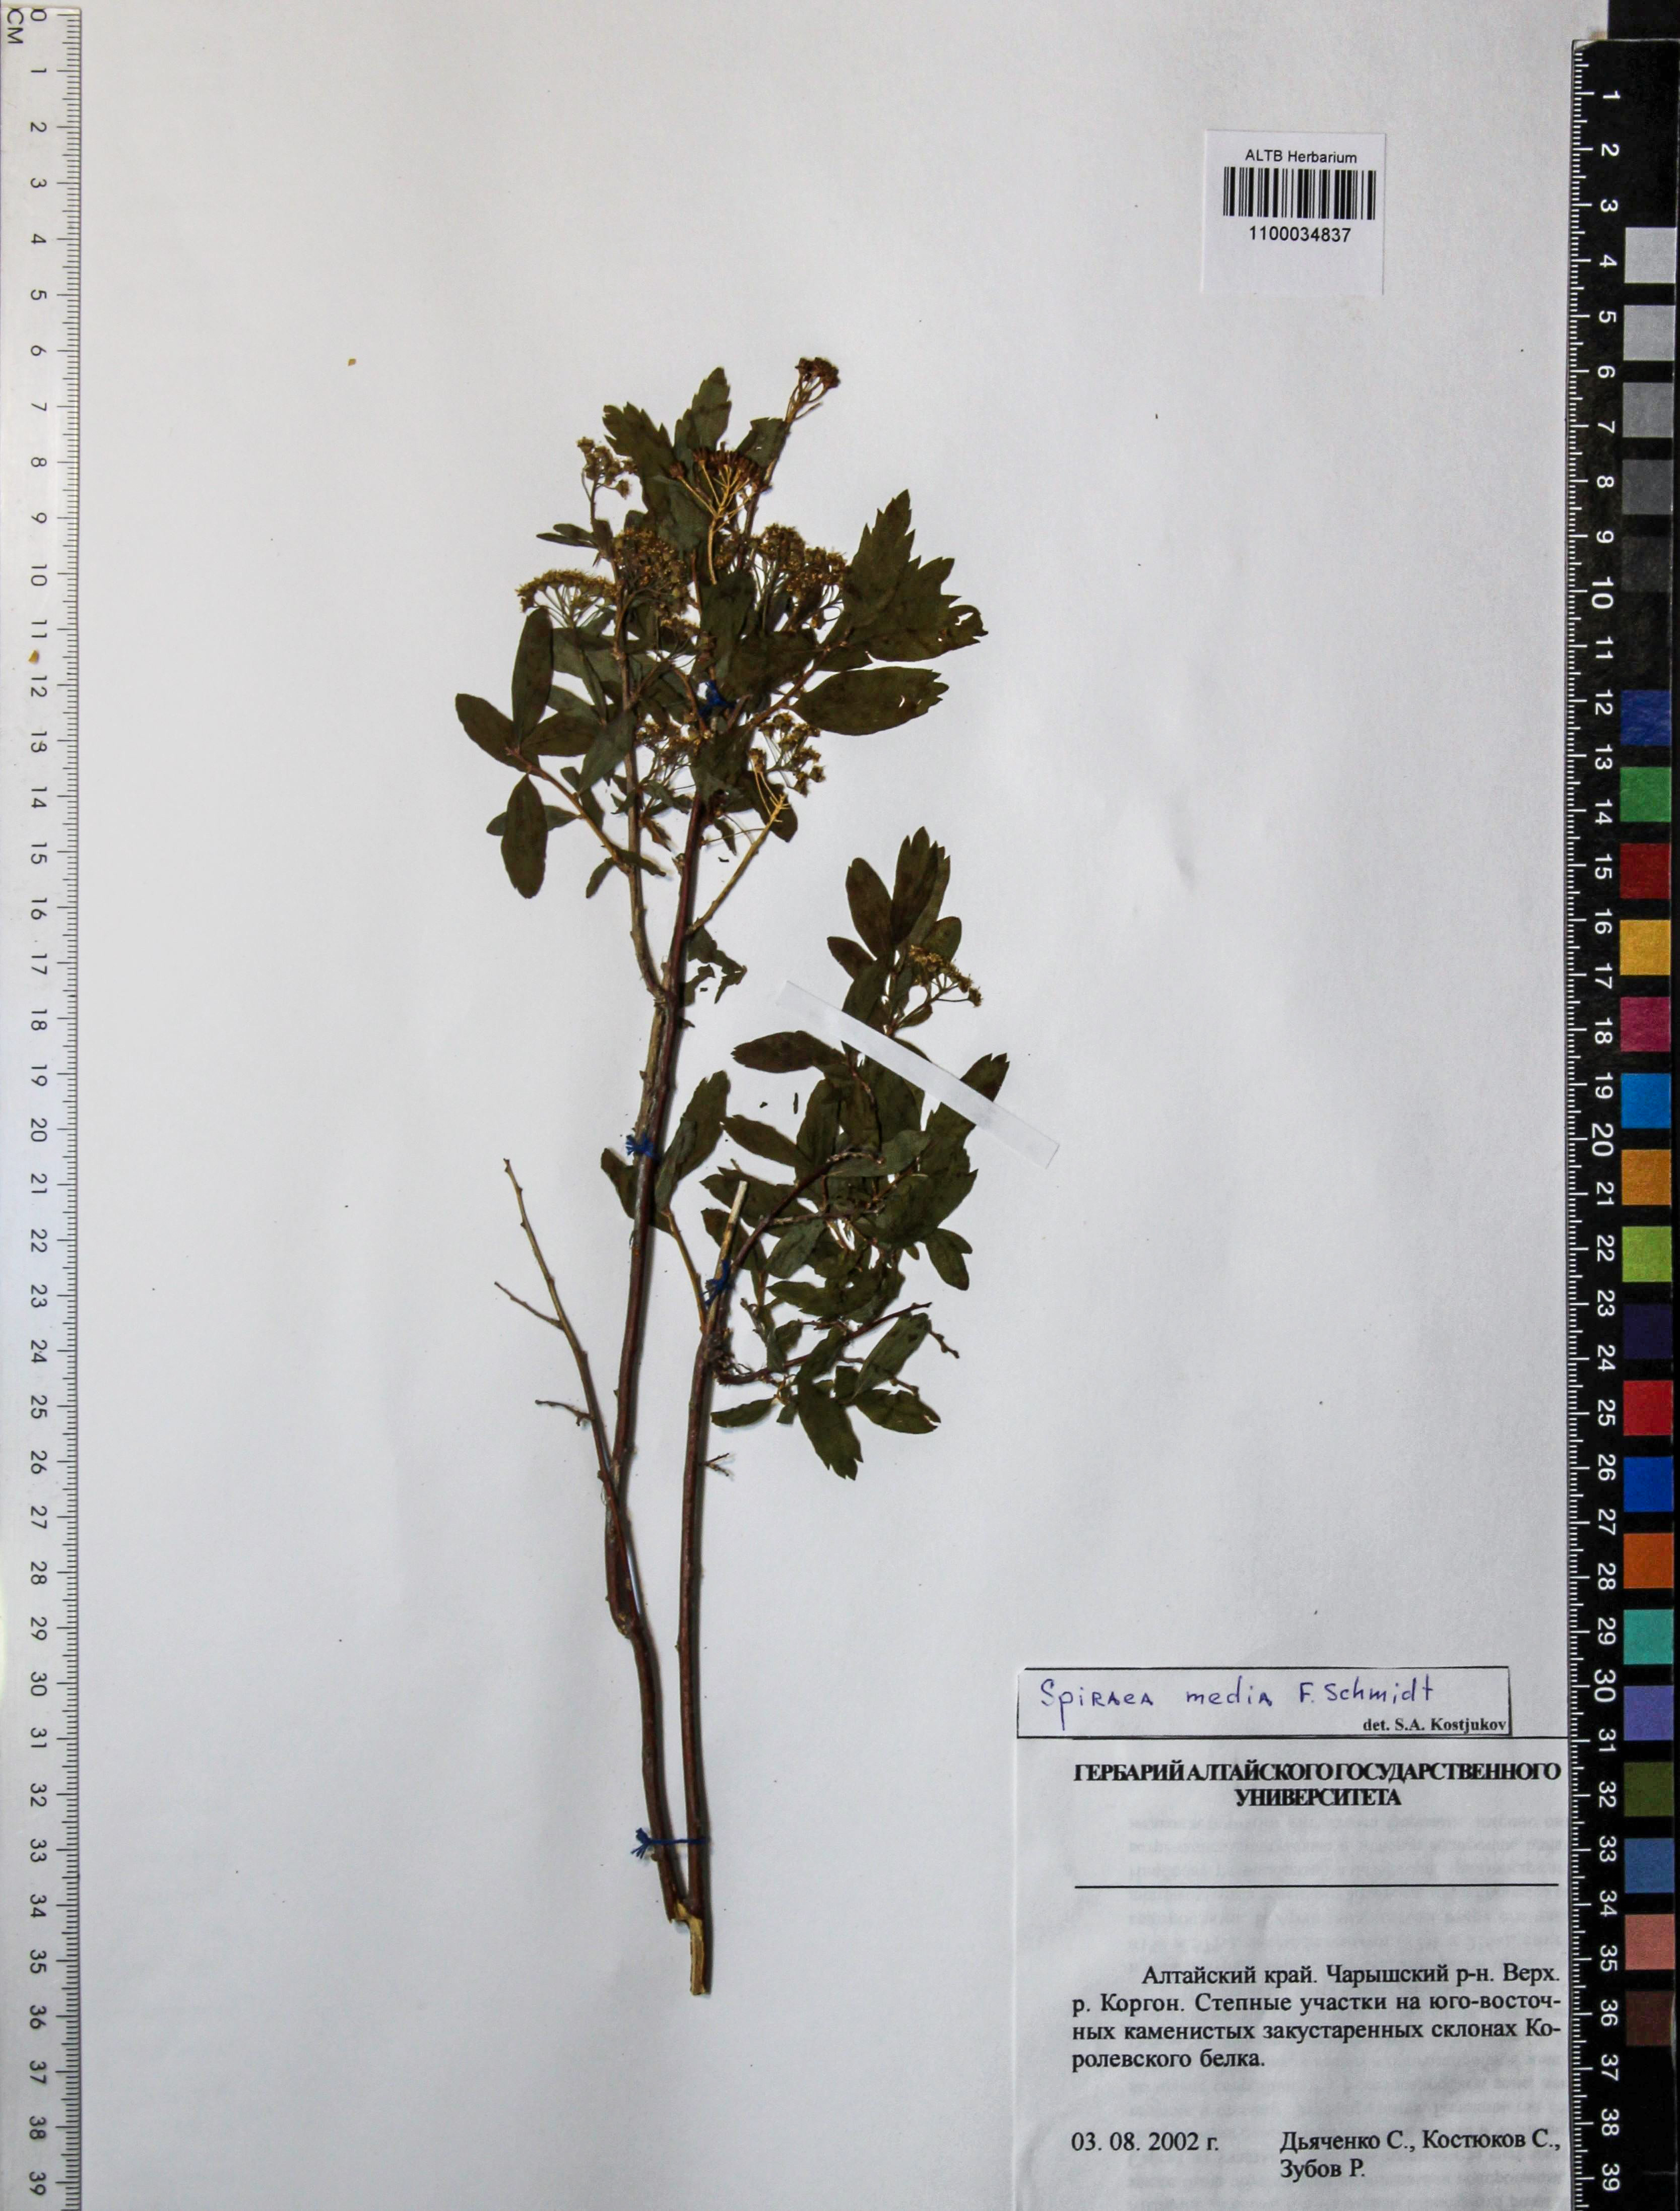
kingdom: Plantae
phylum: Tracheophyta
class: Magnoliopsida
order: Rosales
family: Rosaceae
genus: Spiraea
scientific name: Spiraea media
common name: Russian spiraea
